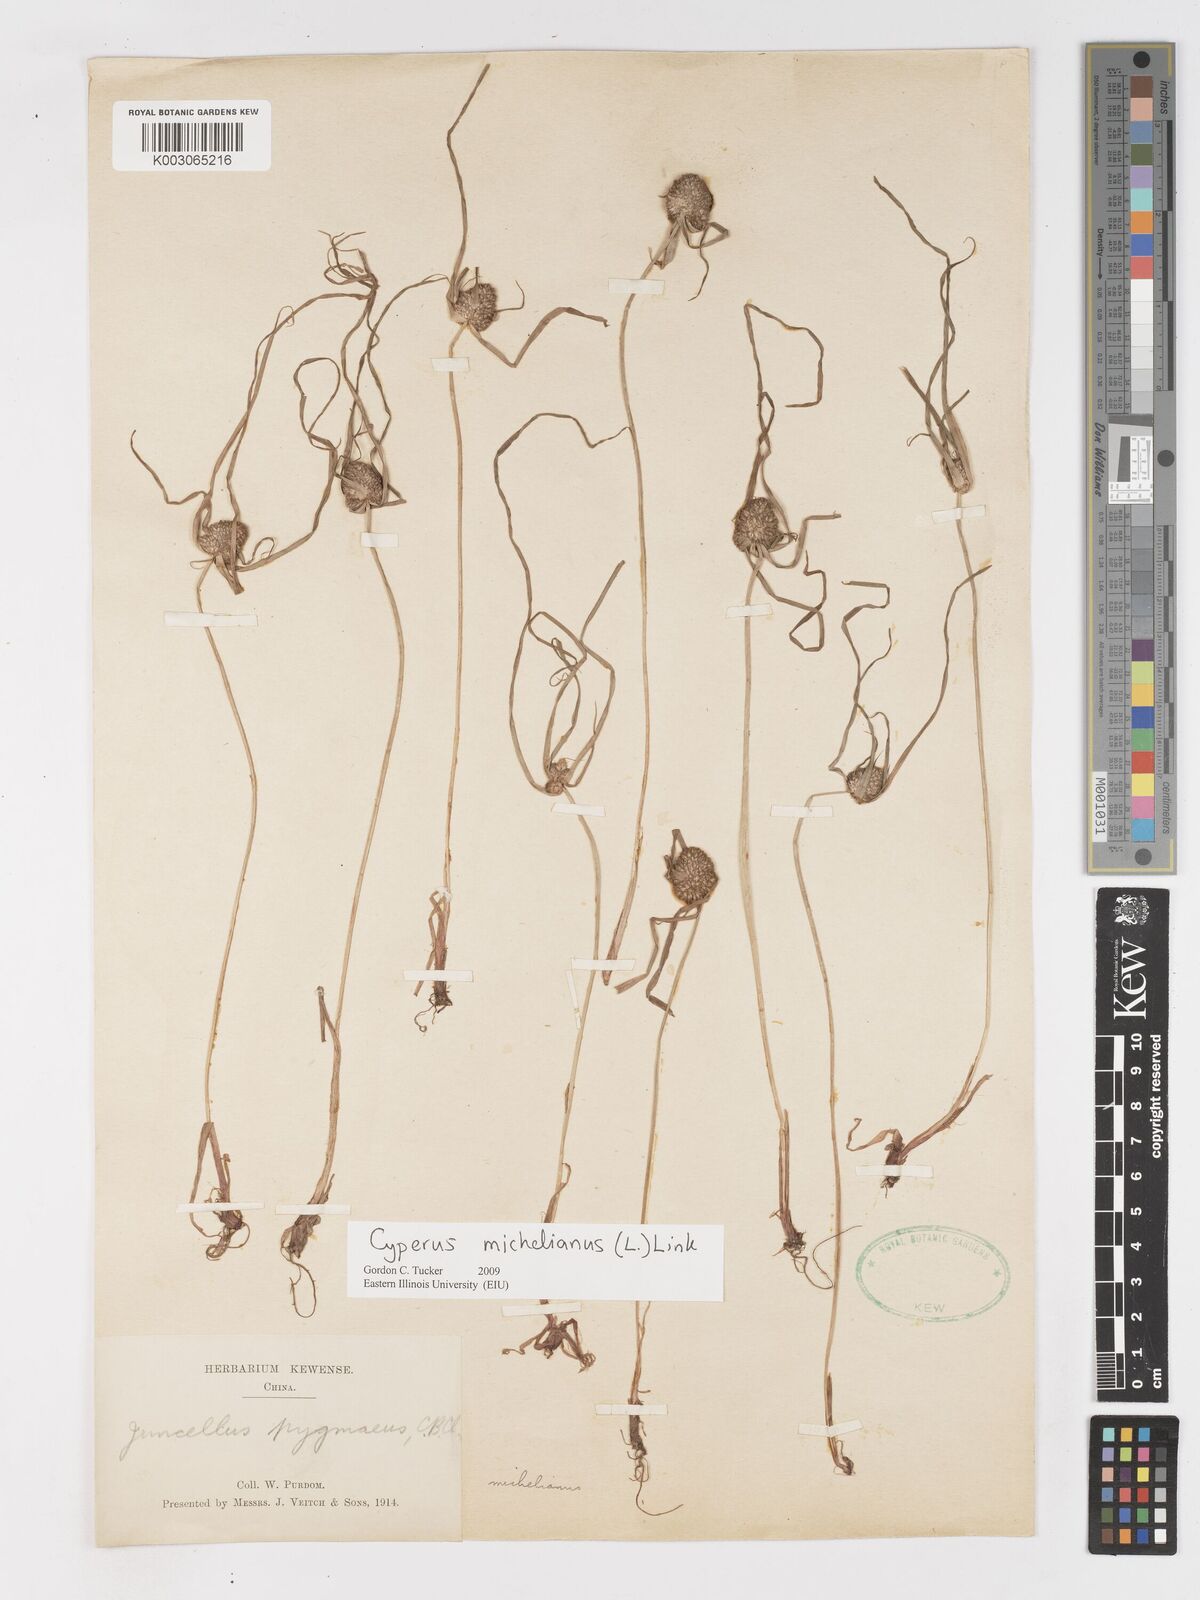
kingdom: Plantae
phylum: Tracheophyta
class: Liliopsida
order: Poales
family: Cyperaceae
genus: Cyperus
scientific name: Cyperus michelianus
